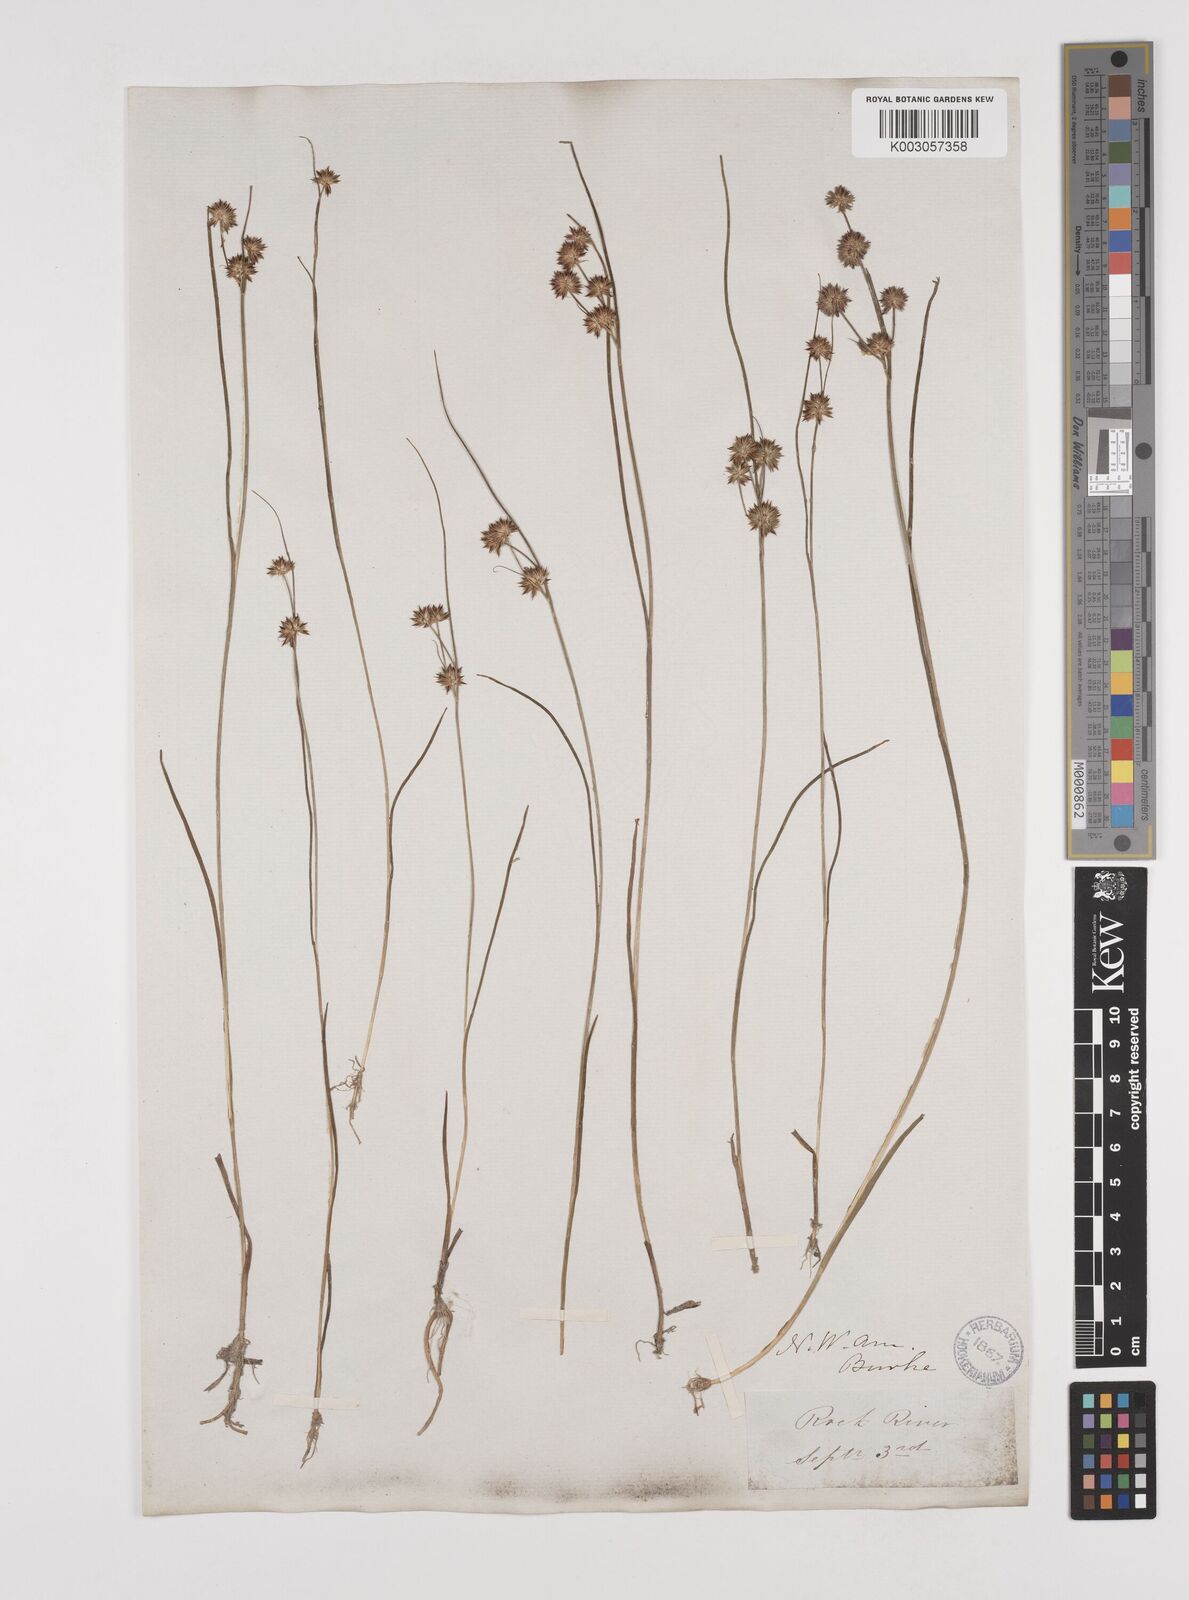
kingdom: Plantae
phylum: Tracheophyta
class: Liliopsida
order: Poales
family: Juncaceae
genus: Juncus
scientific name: Juncus nodosus
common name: Knotted rush
